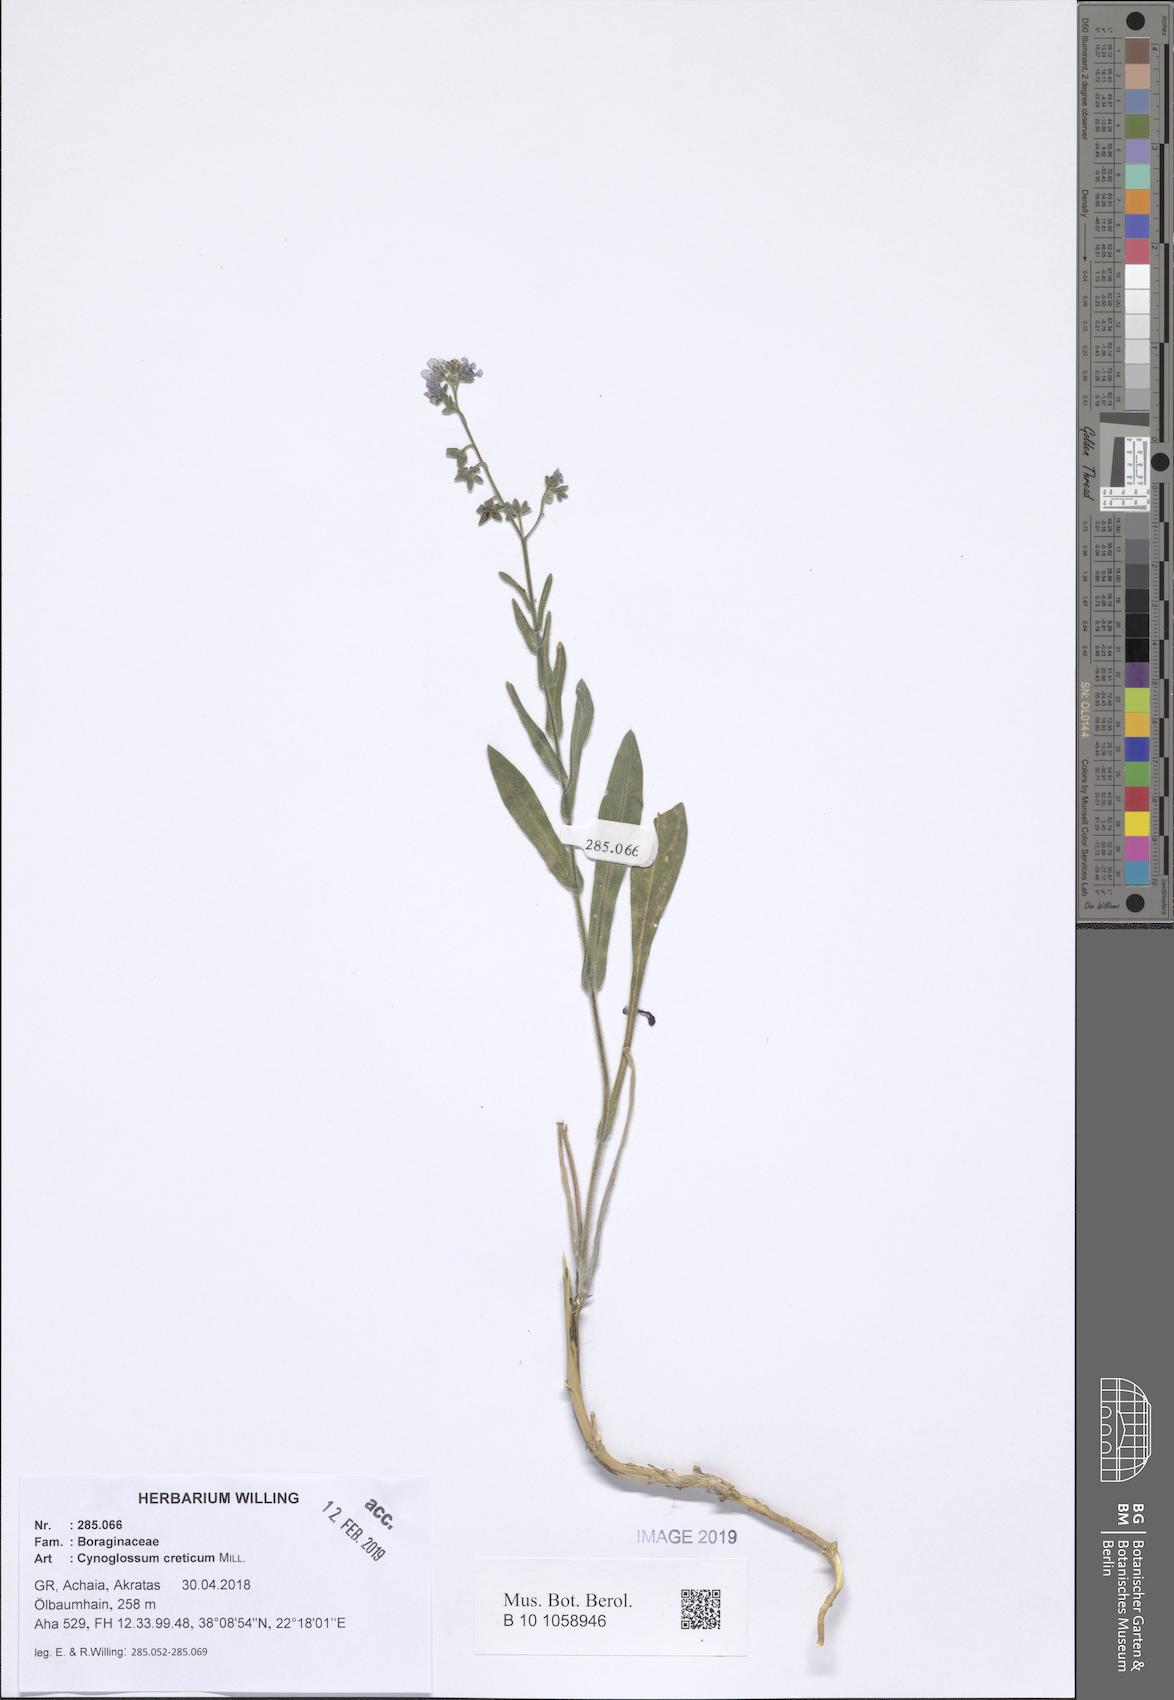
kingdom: Plantae
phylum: Tracheophyta
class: Magnoliopsida
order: Boraginales
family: Boraginaceae
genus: Cynoglossum
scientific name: Cynoglossum creticum
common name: Blue hound's tongue
